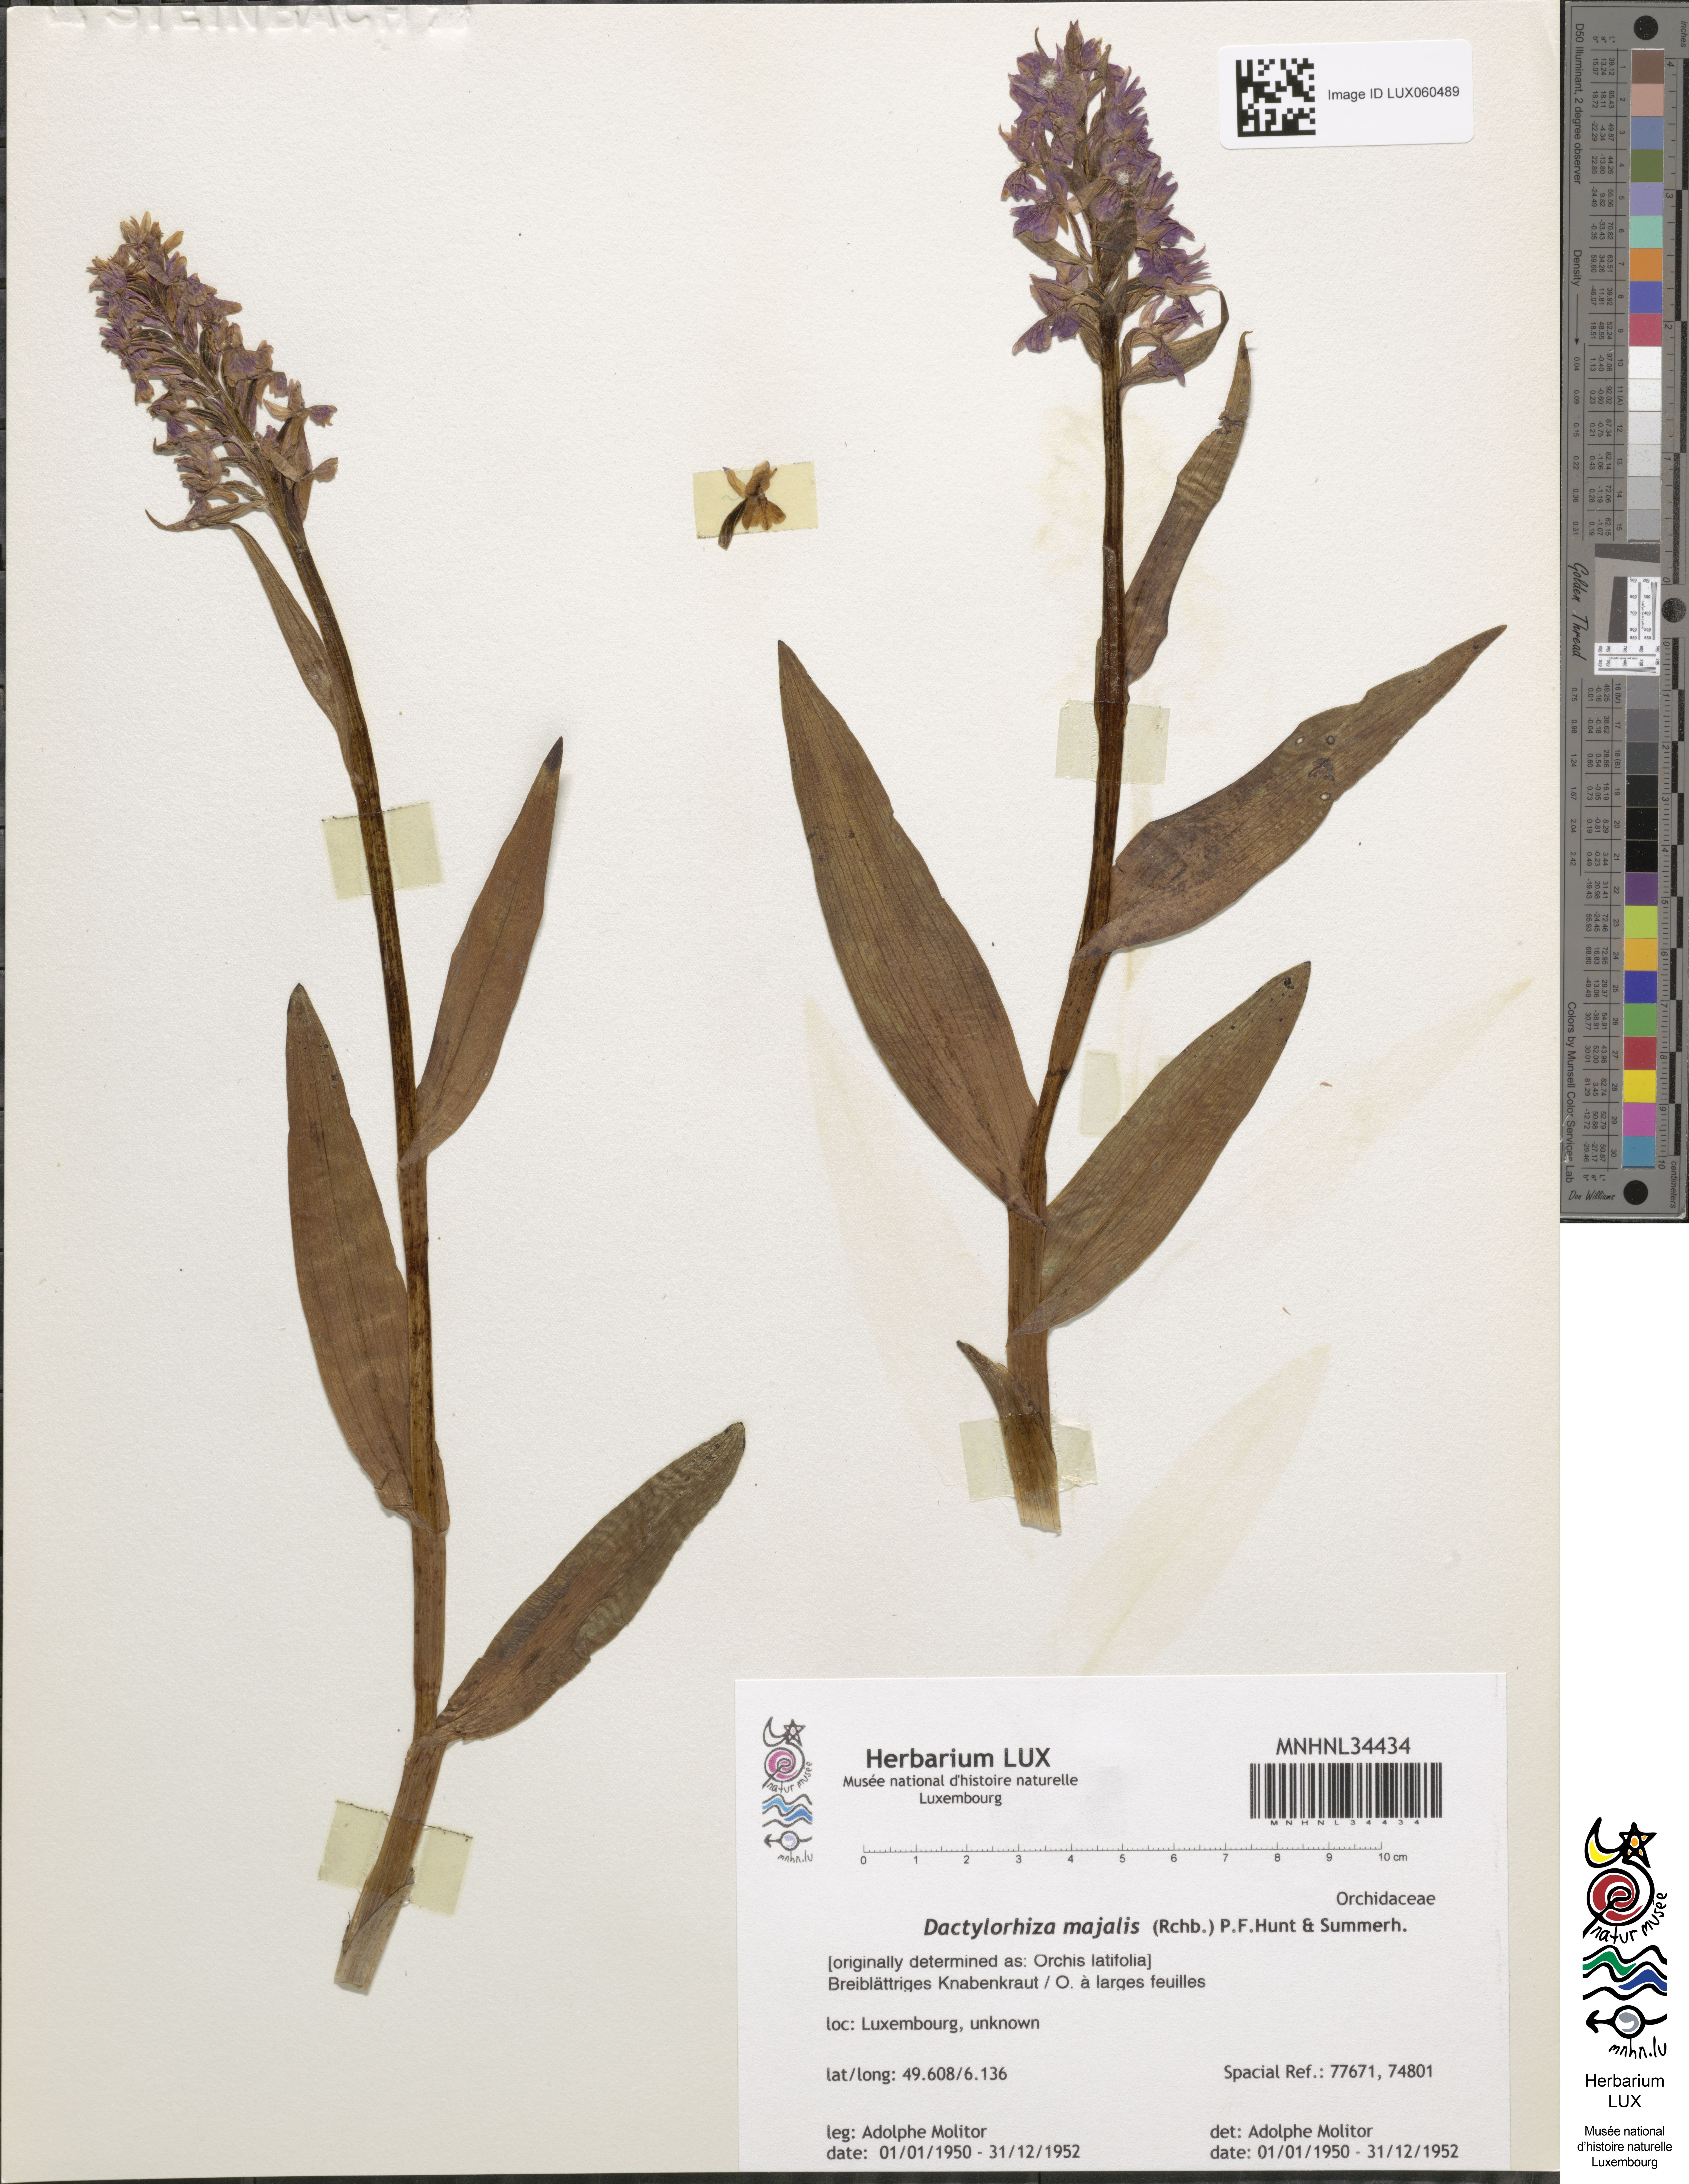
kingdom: Plantae
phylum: Tracheophyta
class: Liliopsida
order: Asparagales
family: Orchidaceae
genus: Dactylorhiza
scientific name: Dactylorhiza incarnata
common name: Early marsh-orchid
